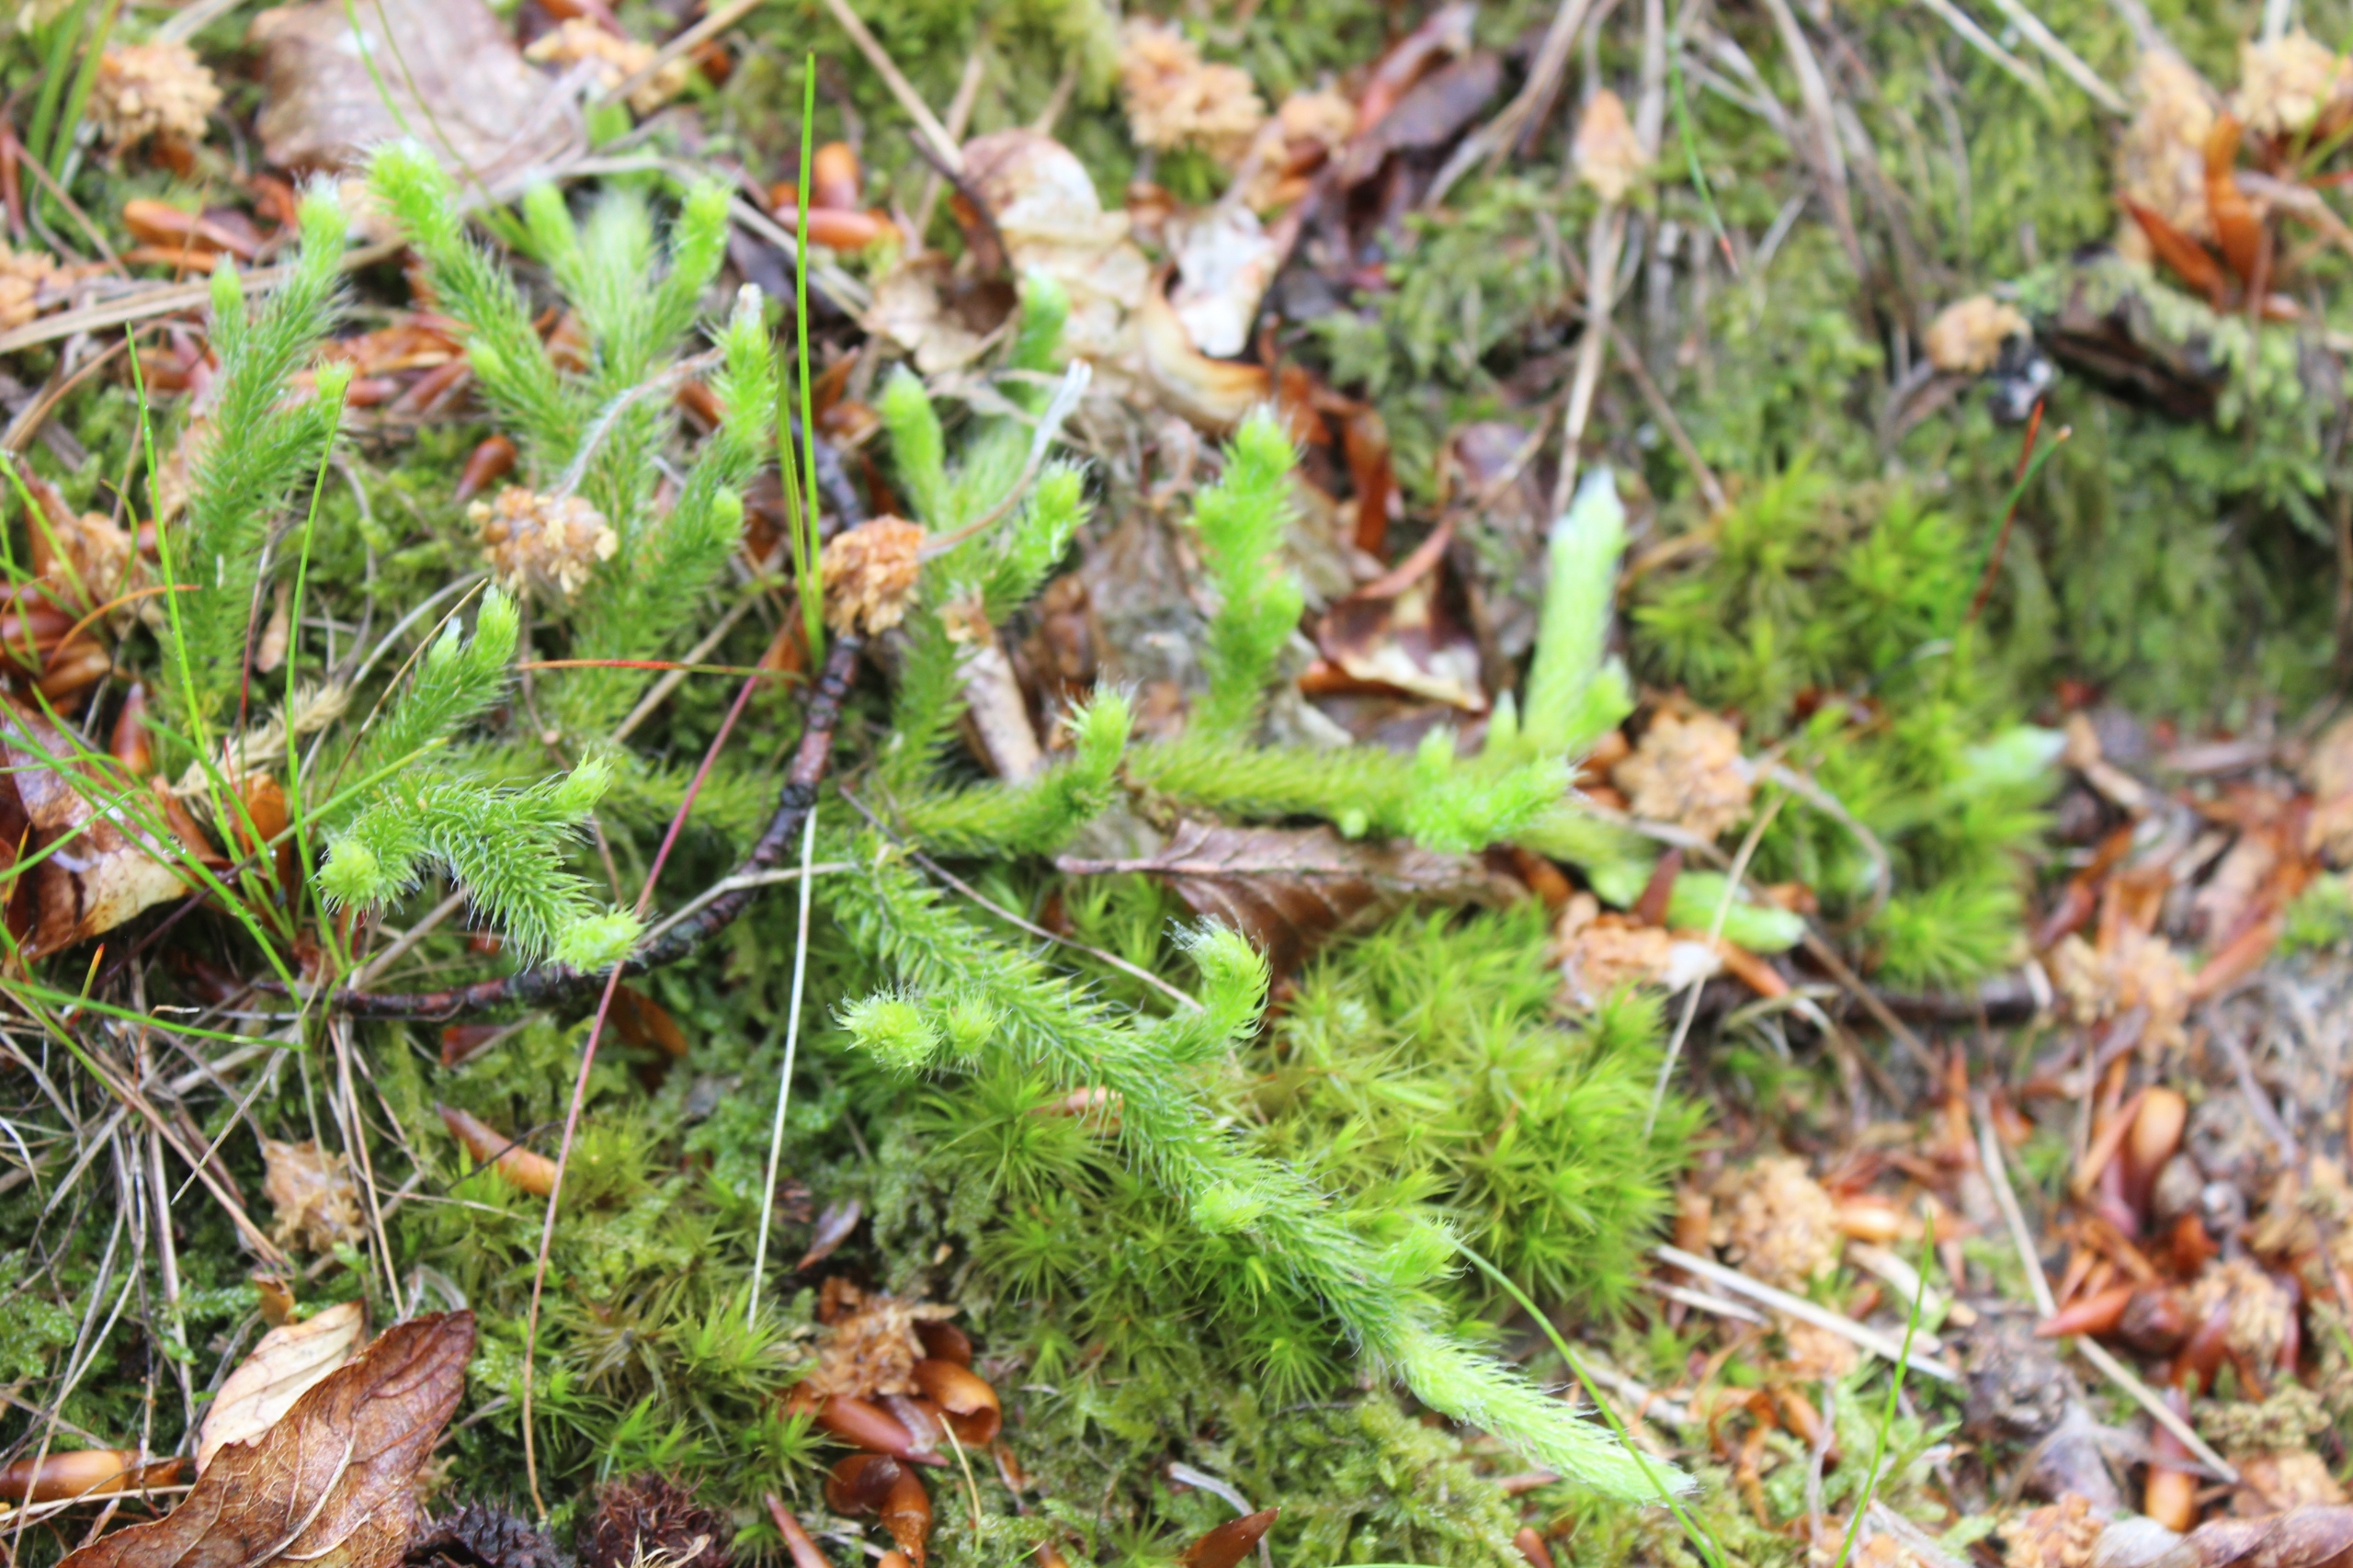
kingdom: Plantae
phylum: Tracheophyta
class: Lycopodiopsida
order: Lycopodiales
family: Lycopodiaceae
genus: Lycopodium
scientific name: Lycopodium clavatum
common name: Almindelig ulvefod
